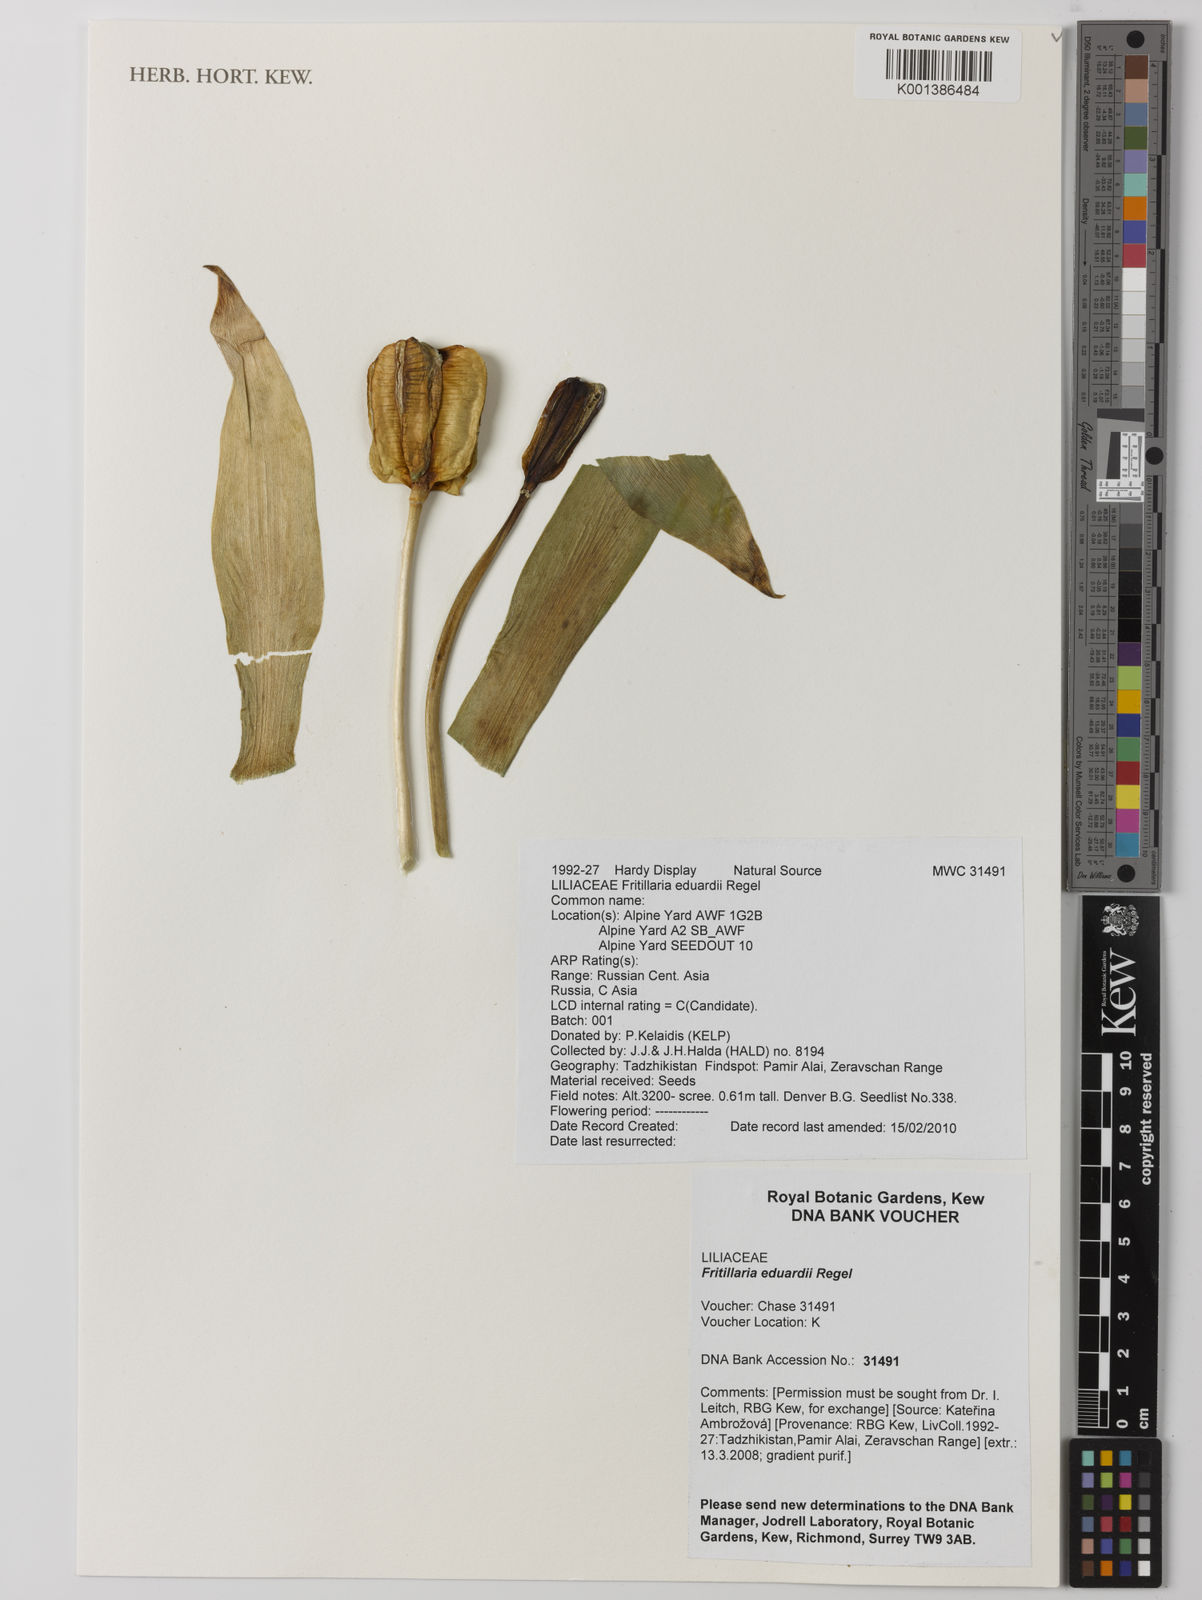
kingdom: Plantae
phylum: Tracheophyta
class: Liliopsida
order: Liliales
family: Liliaceae
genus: Fritillaria
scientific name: Fritillaria eduardii
